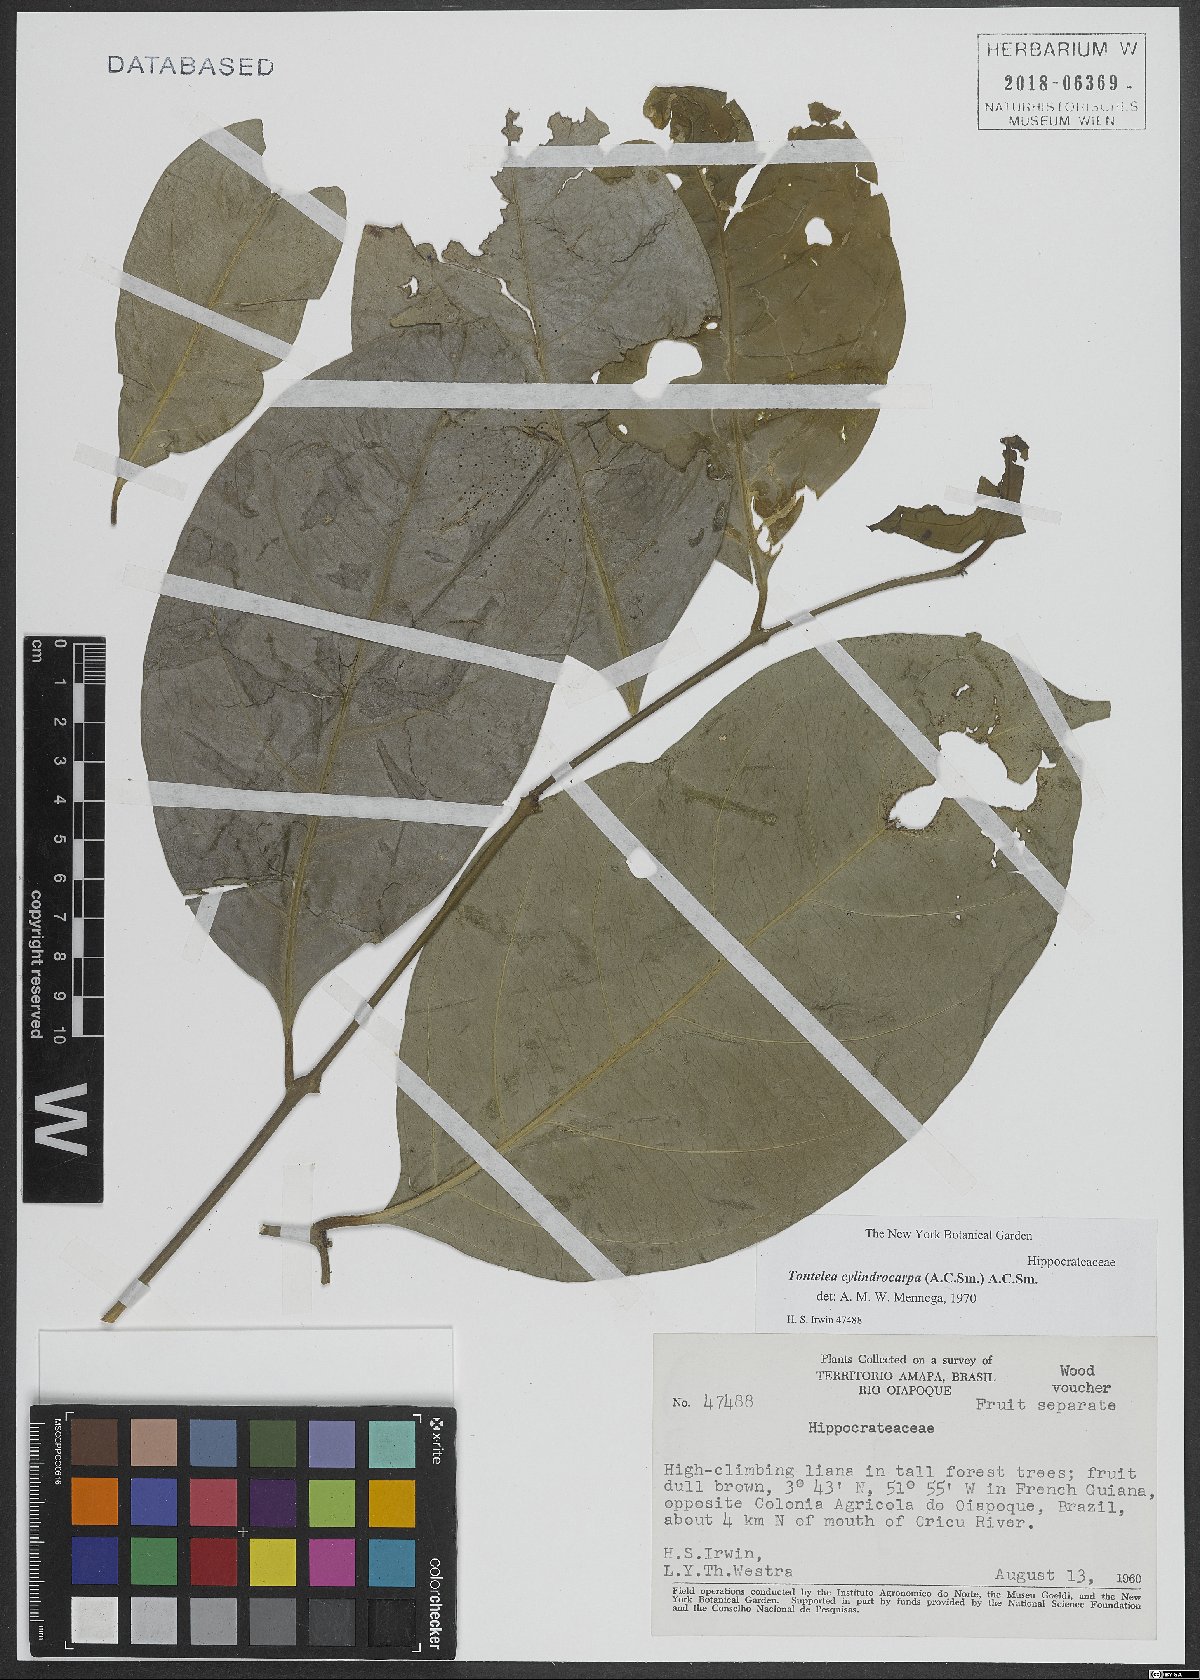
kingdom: Plantae
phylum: Tracheophyta
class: Magnoliopsida
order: Celastrales
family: Celastraceae
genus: Tontelea
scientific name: Tontelea cylindrocarpa
